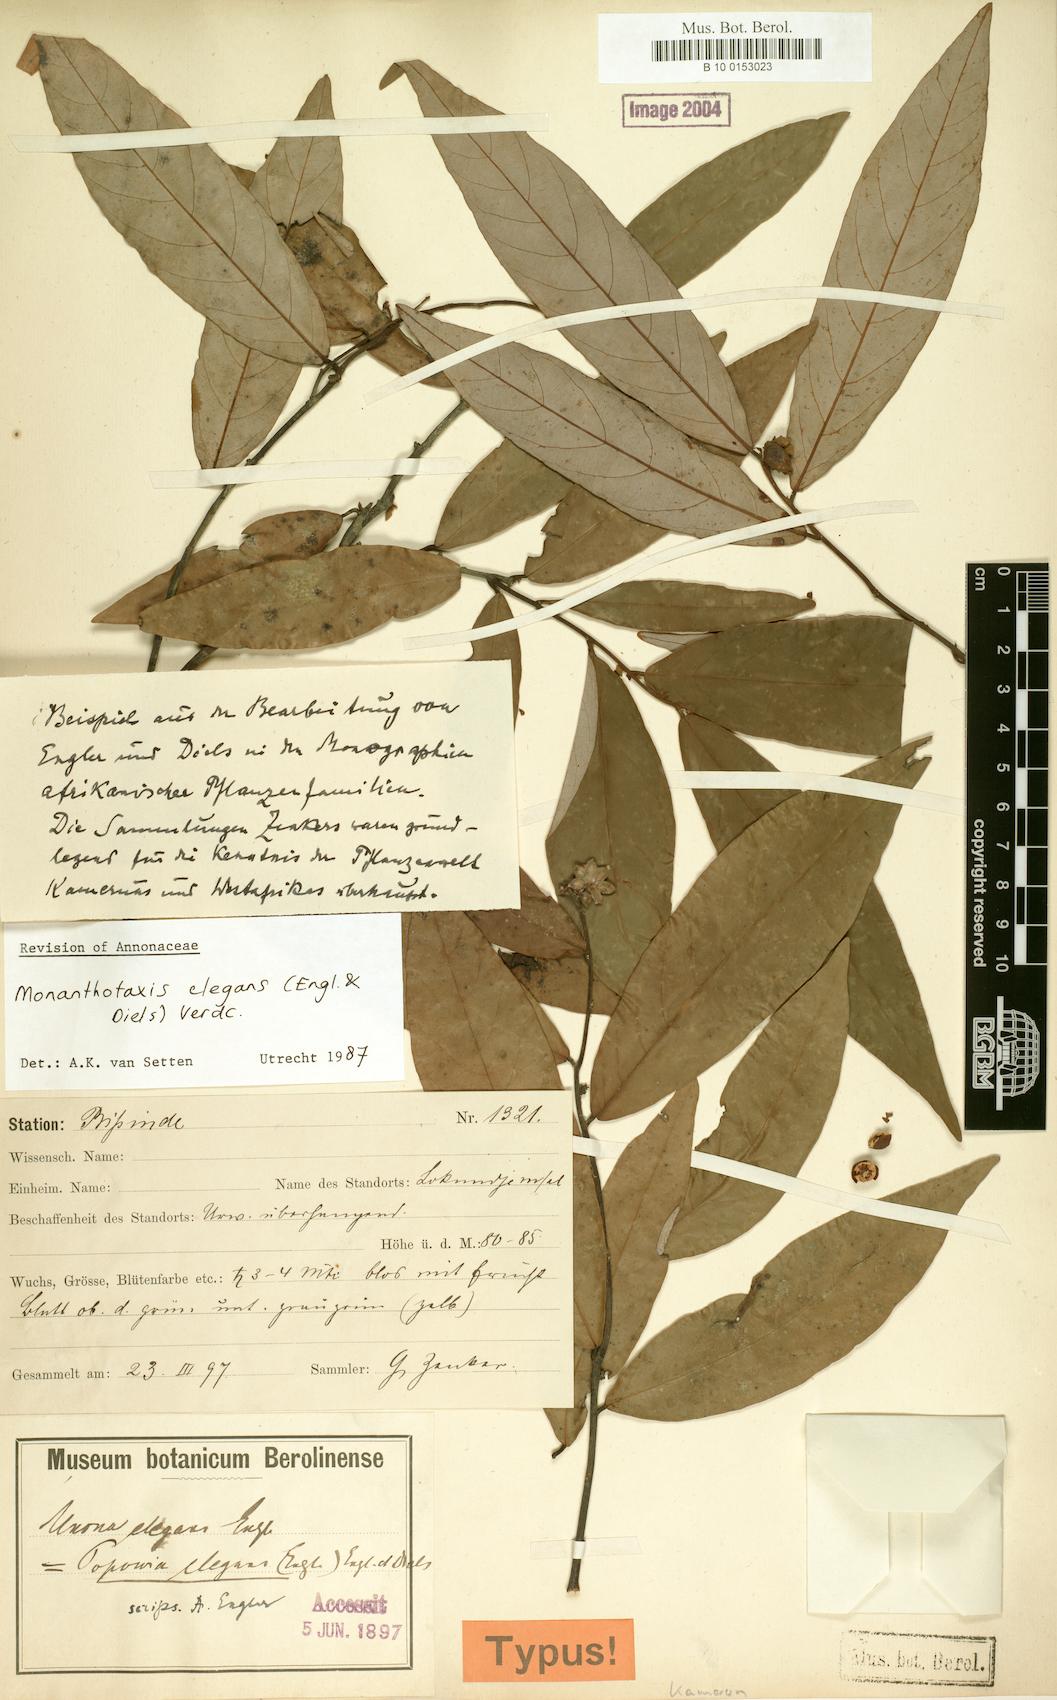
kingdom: Plantae
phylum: Tracheophyta
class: Magnoliopsida
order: Magnoliales
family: Annonaceae
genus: Monanthotaxis
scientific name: Monanthotaxis elegans
